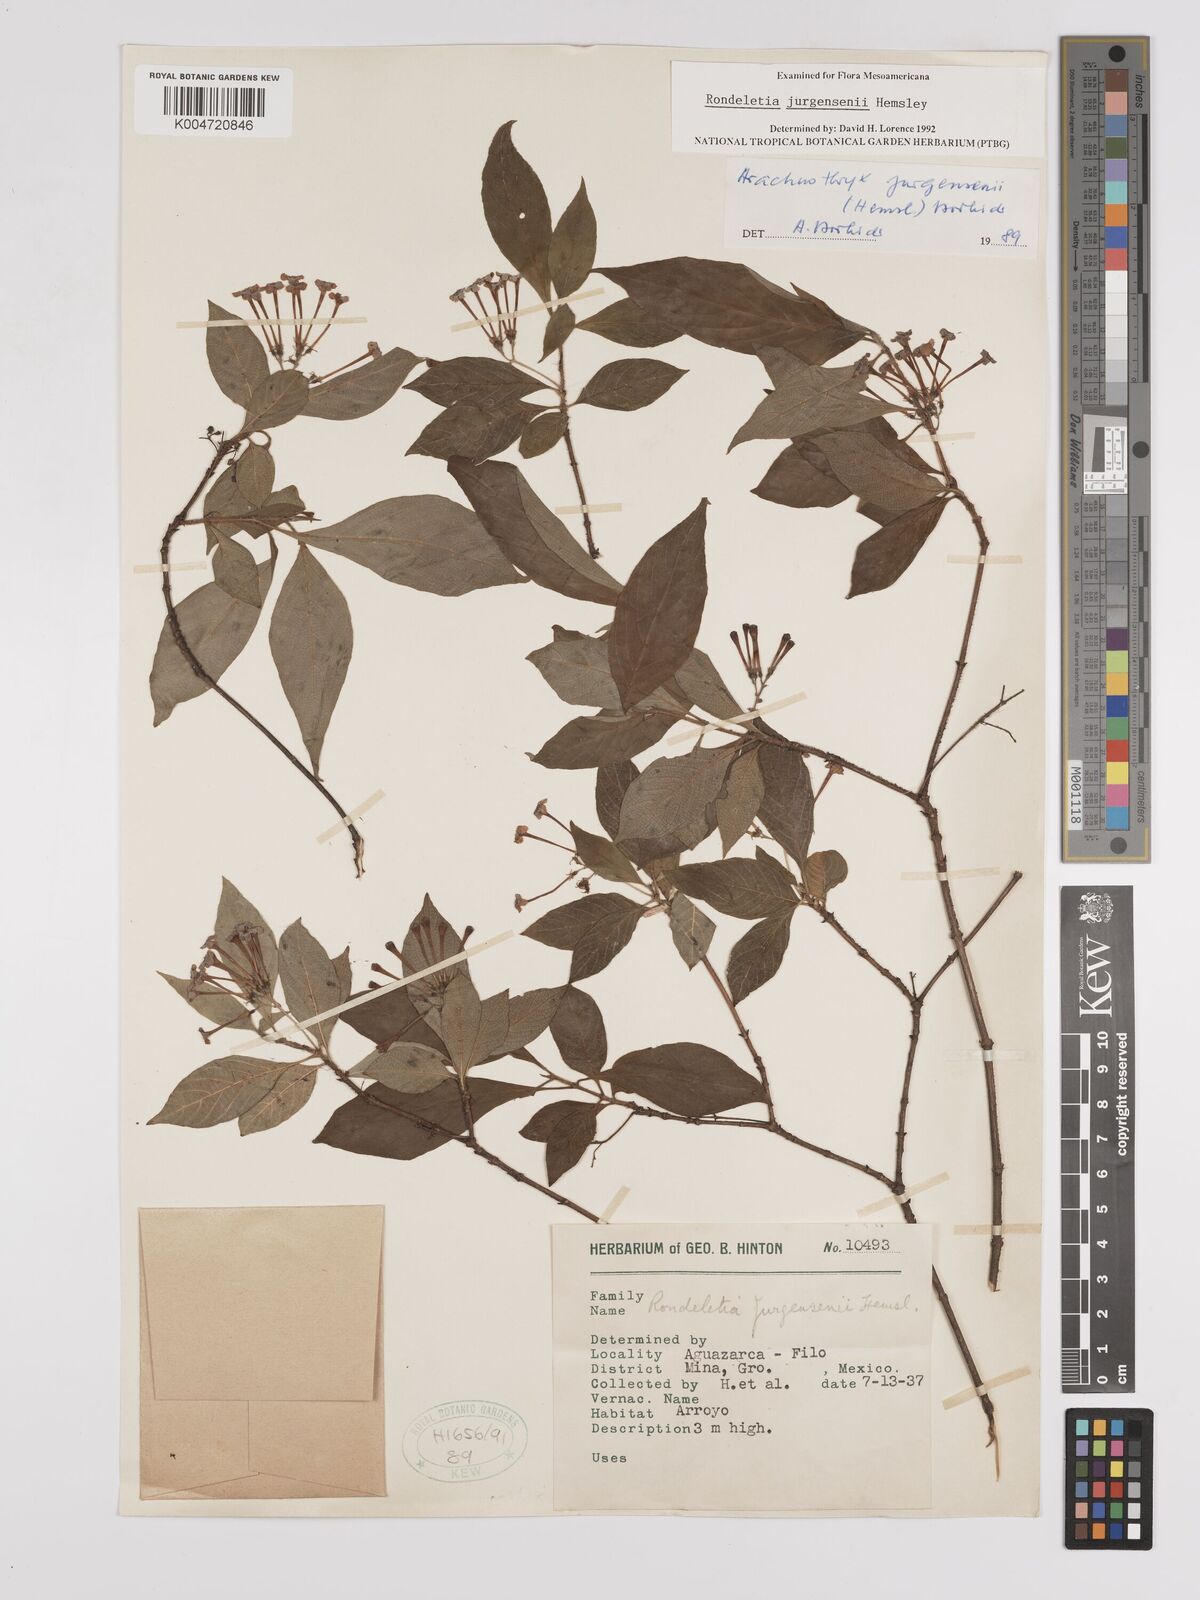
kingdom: Plantae
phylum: Tracheophyta
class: Magnoliopsida
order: Gentianales
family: Rubiaceae
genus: Arachnothryx
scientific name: Arachnothryx jurgensenii
